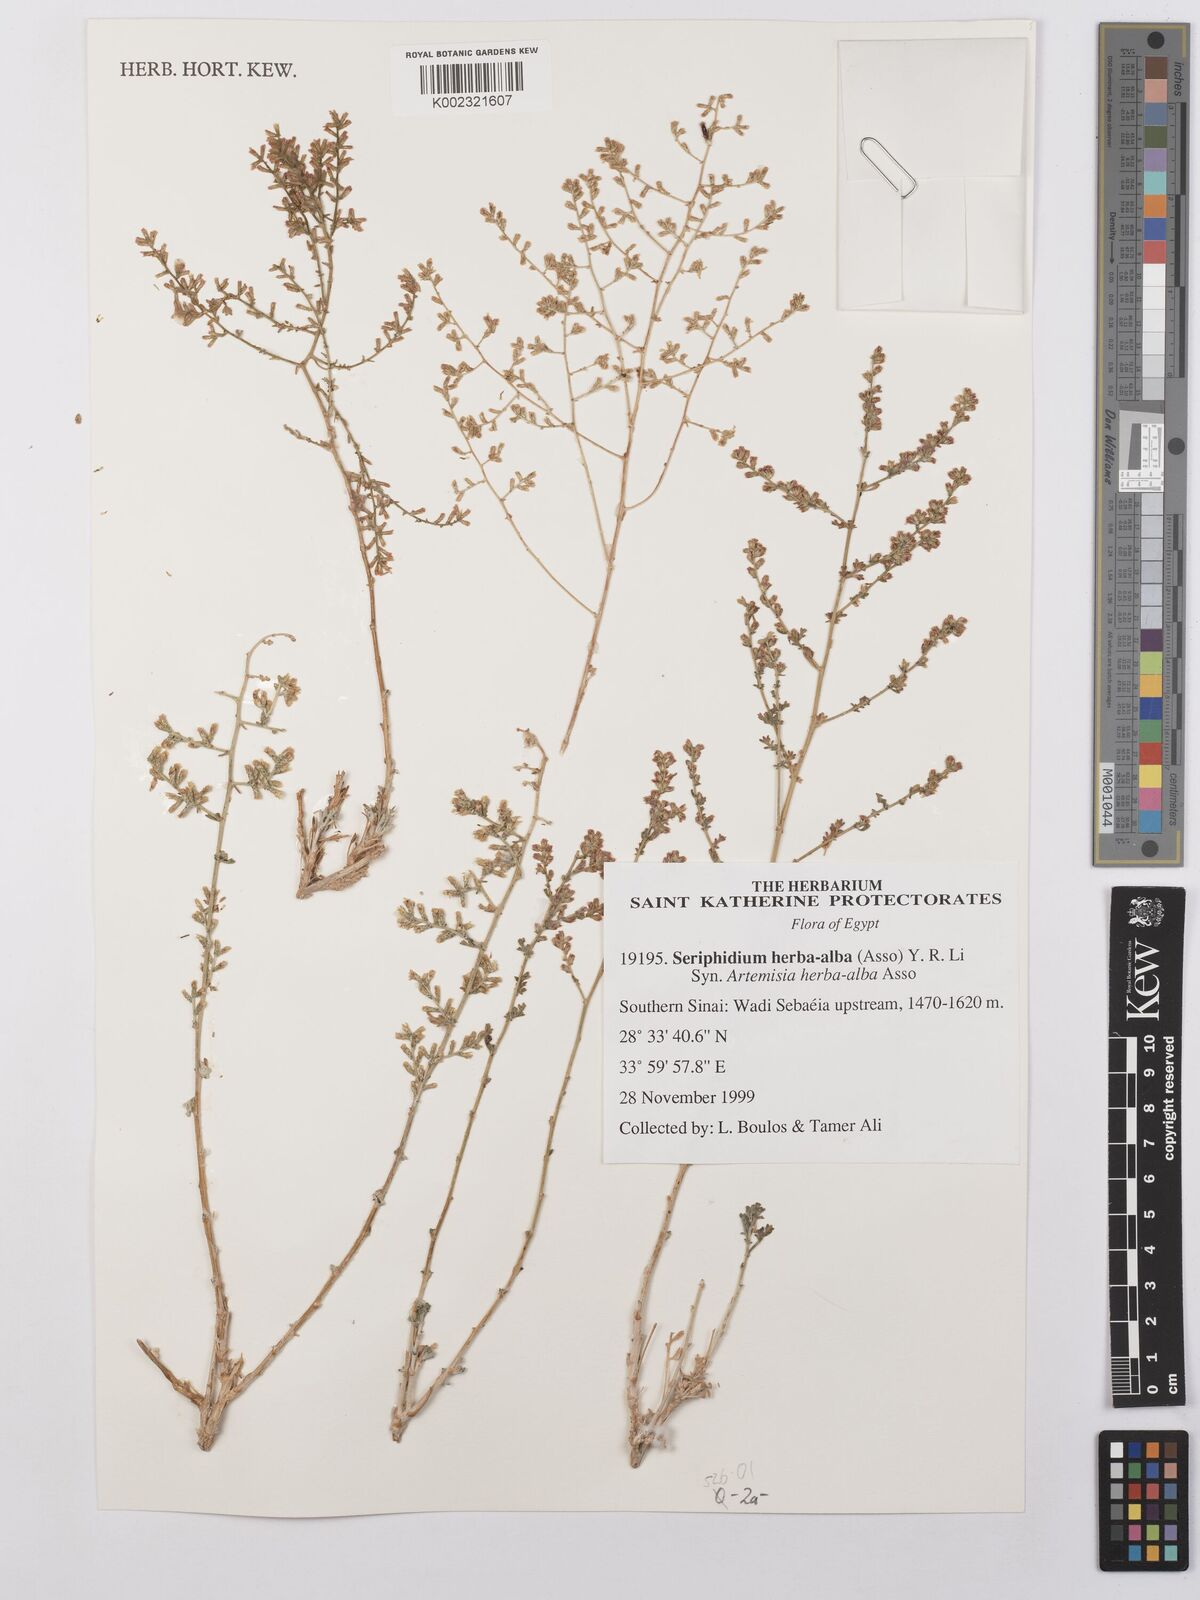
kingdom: Plantae
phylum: Tracheophyta
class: Magnoliopsida
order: Asterales
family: Asteraceae
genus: Artemisia
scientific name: Artemisia herba-alba
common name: White wormwood
